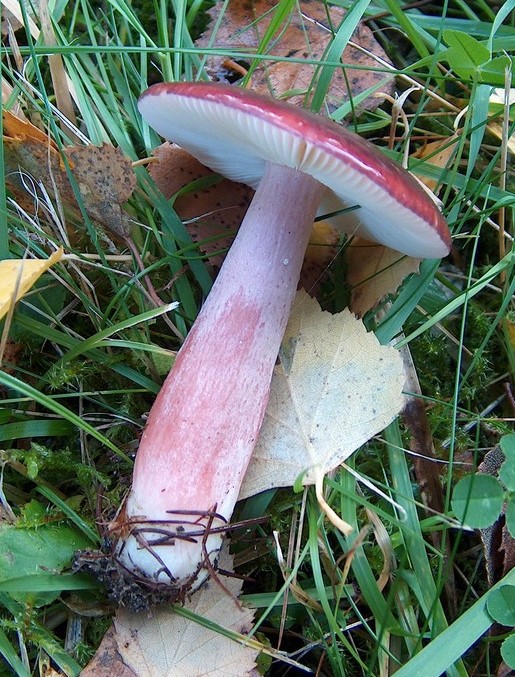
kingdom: Fungi
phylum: Basidiomycota
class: Agaricomycetes
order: Russulales
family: Russulaceae
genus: Russula
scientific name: Russula queletii
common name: Quélets skørhat
